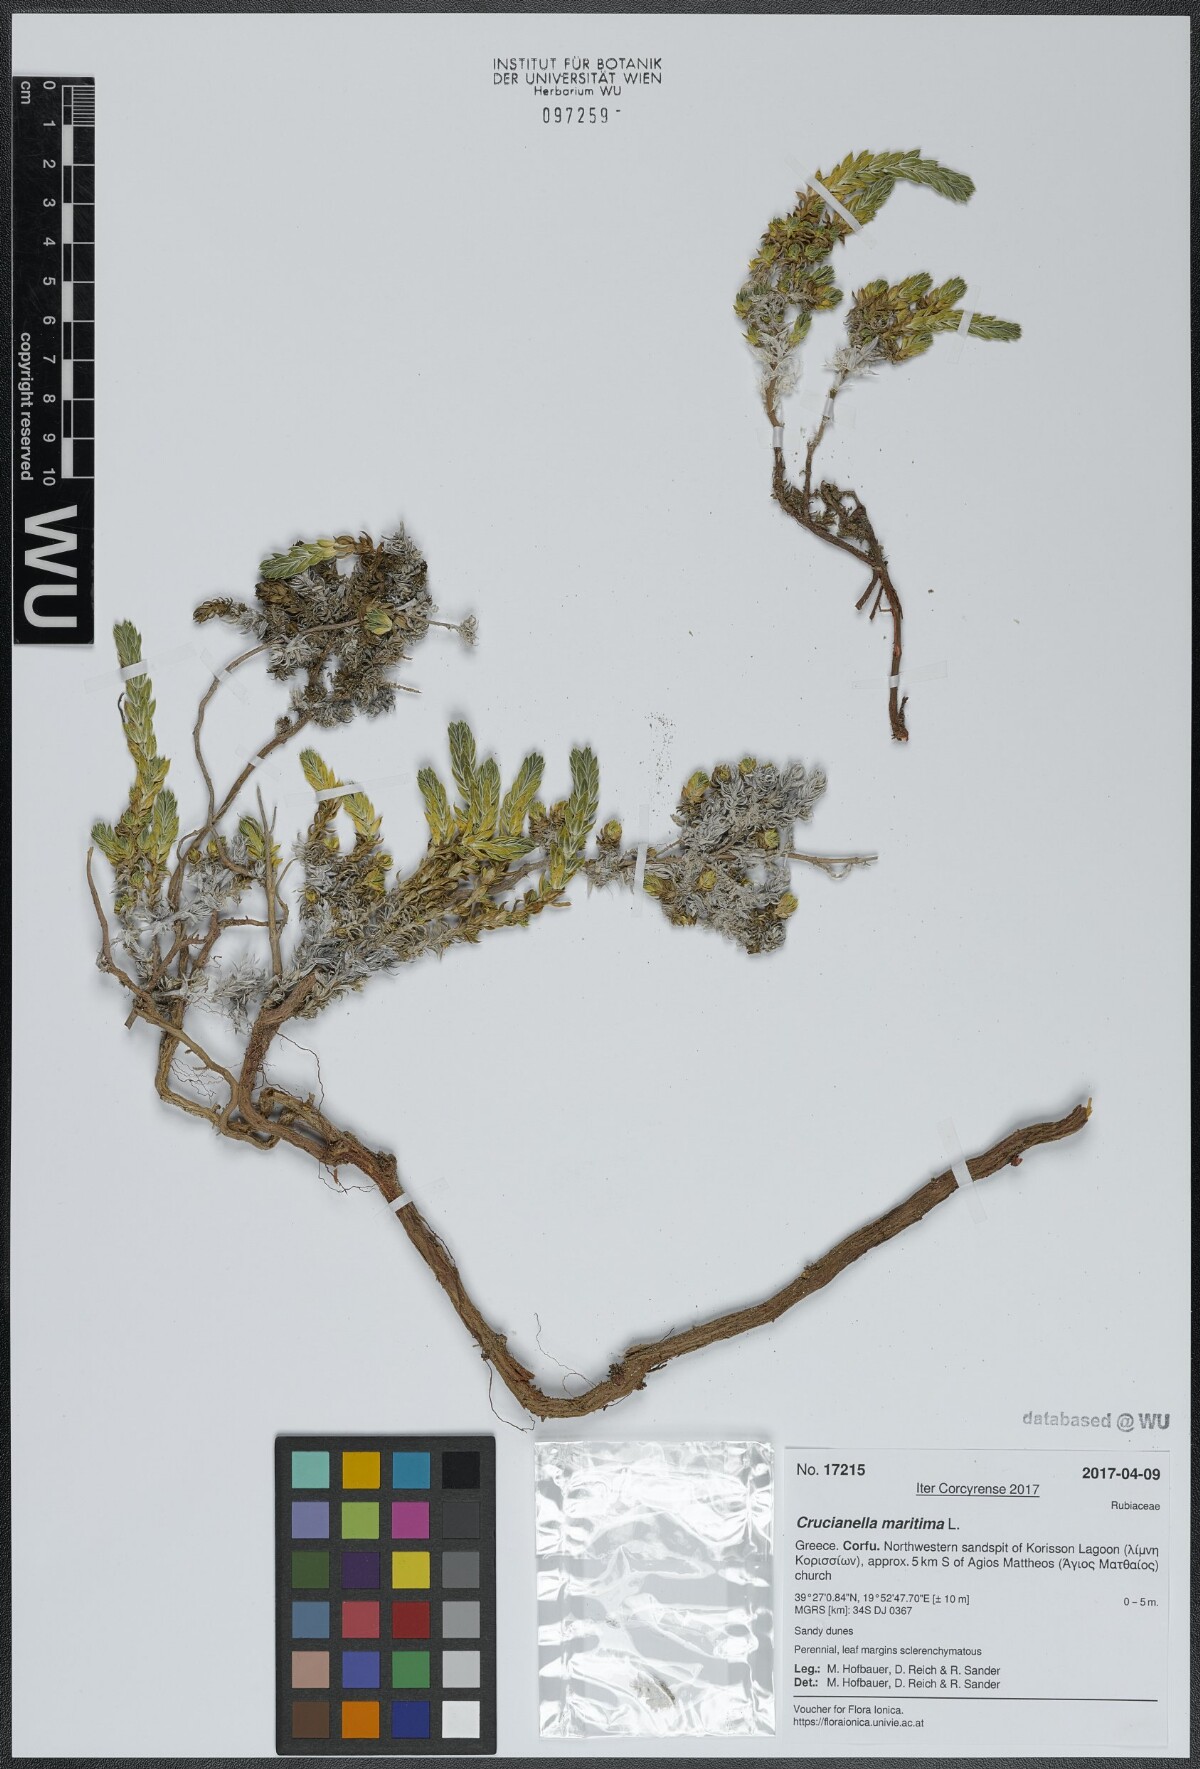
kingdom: Plantae
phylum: Tracheophyta
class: Magnoliopsida
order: Gentianales
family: Rubiaceae
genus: Crucianella
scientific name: Crucianella maritima
